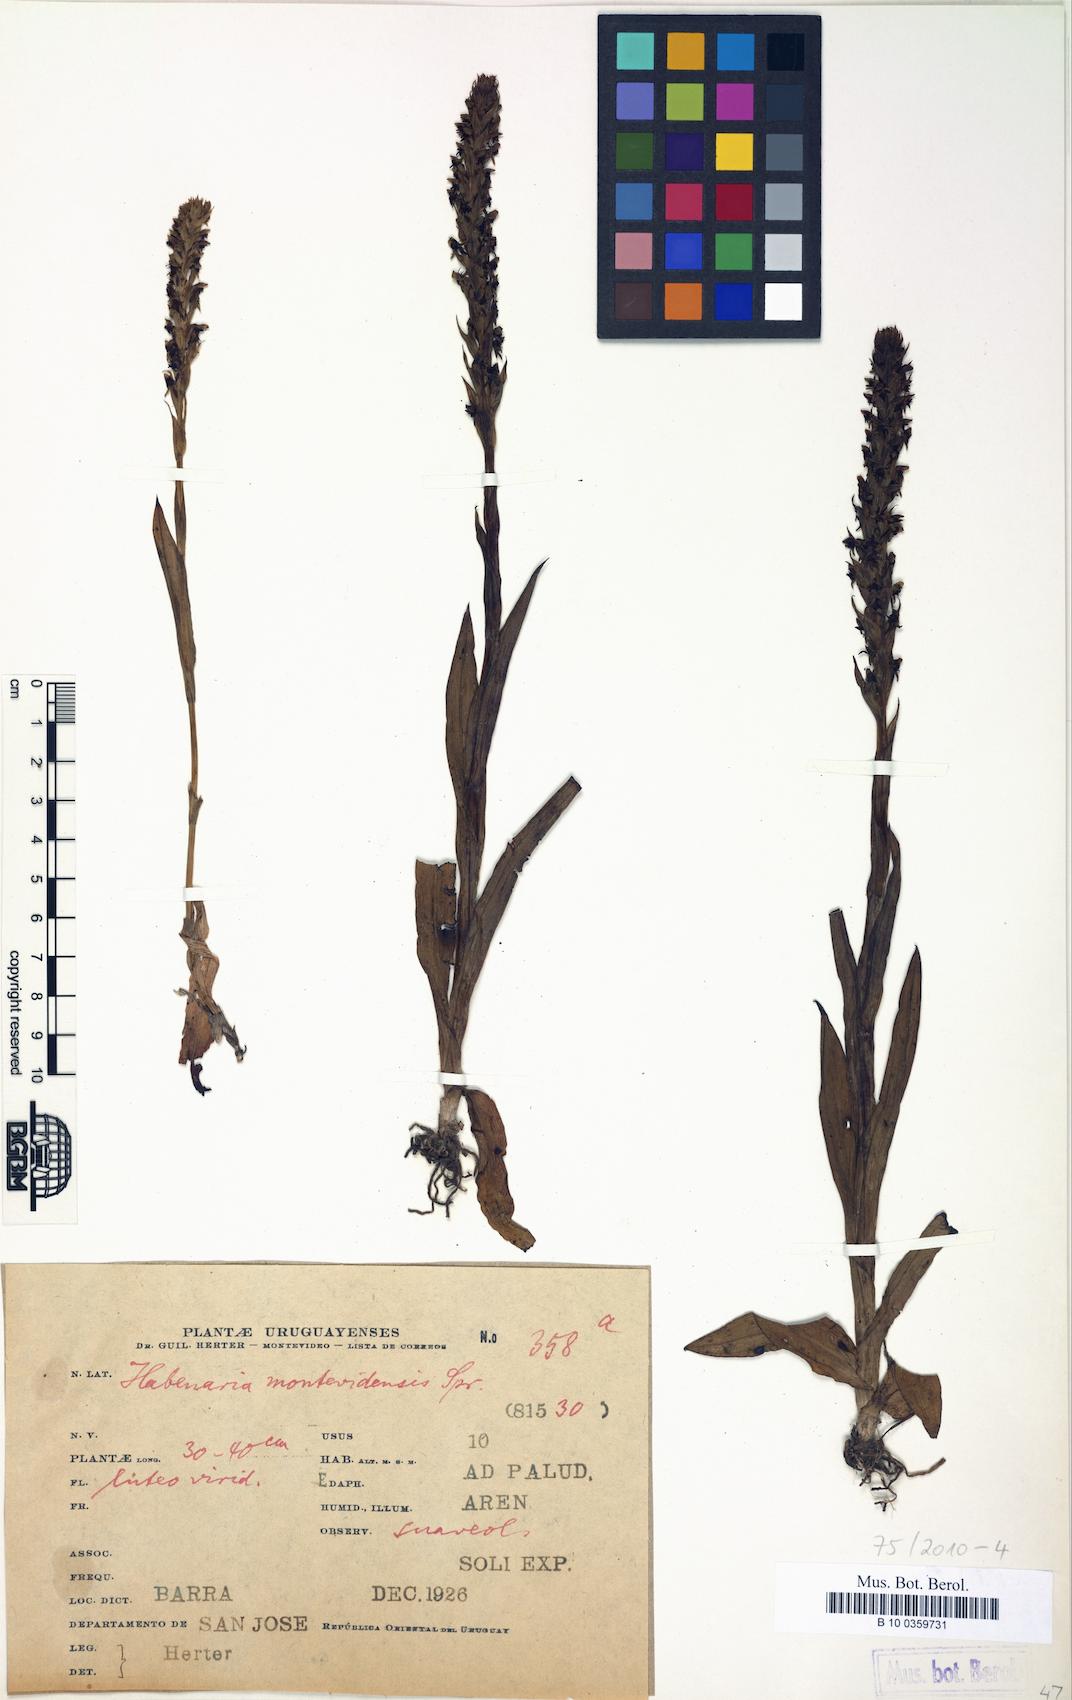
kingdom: Plantae
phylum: Tracheophyta
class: Liliopsida
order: Asparagales
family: Orchidaceae
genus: Habenaria
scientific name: Habenaria montevidensis
